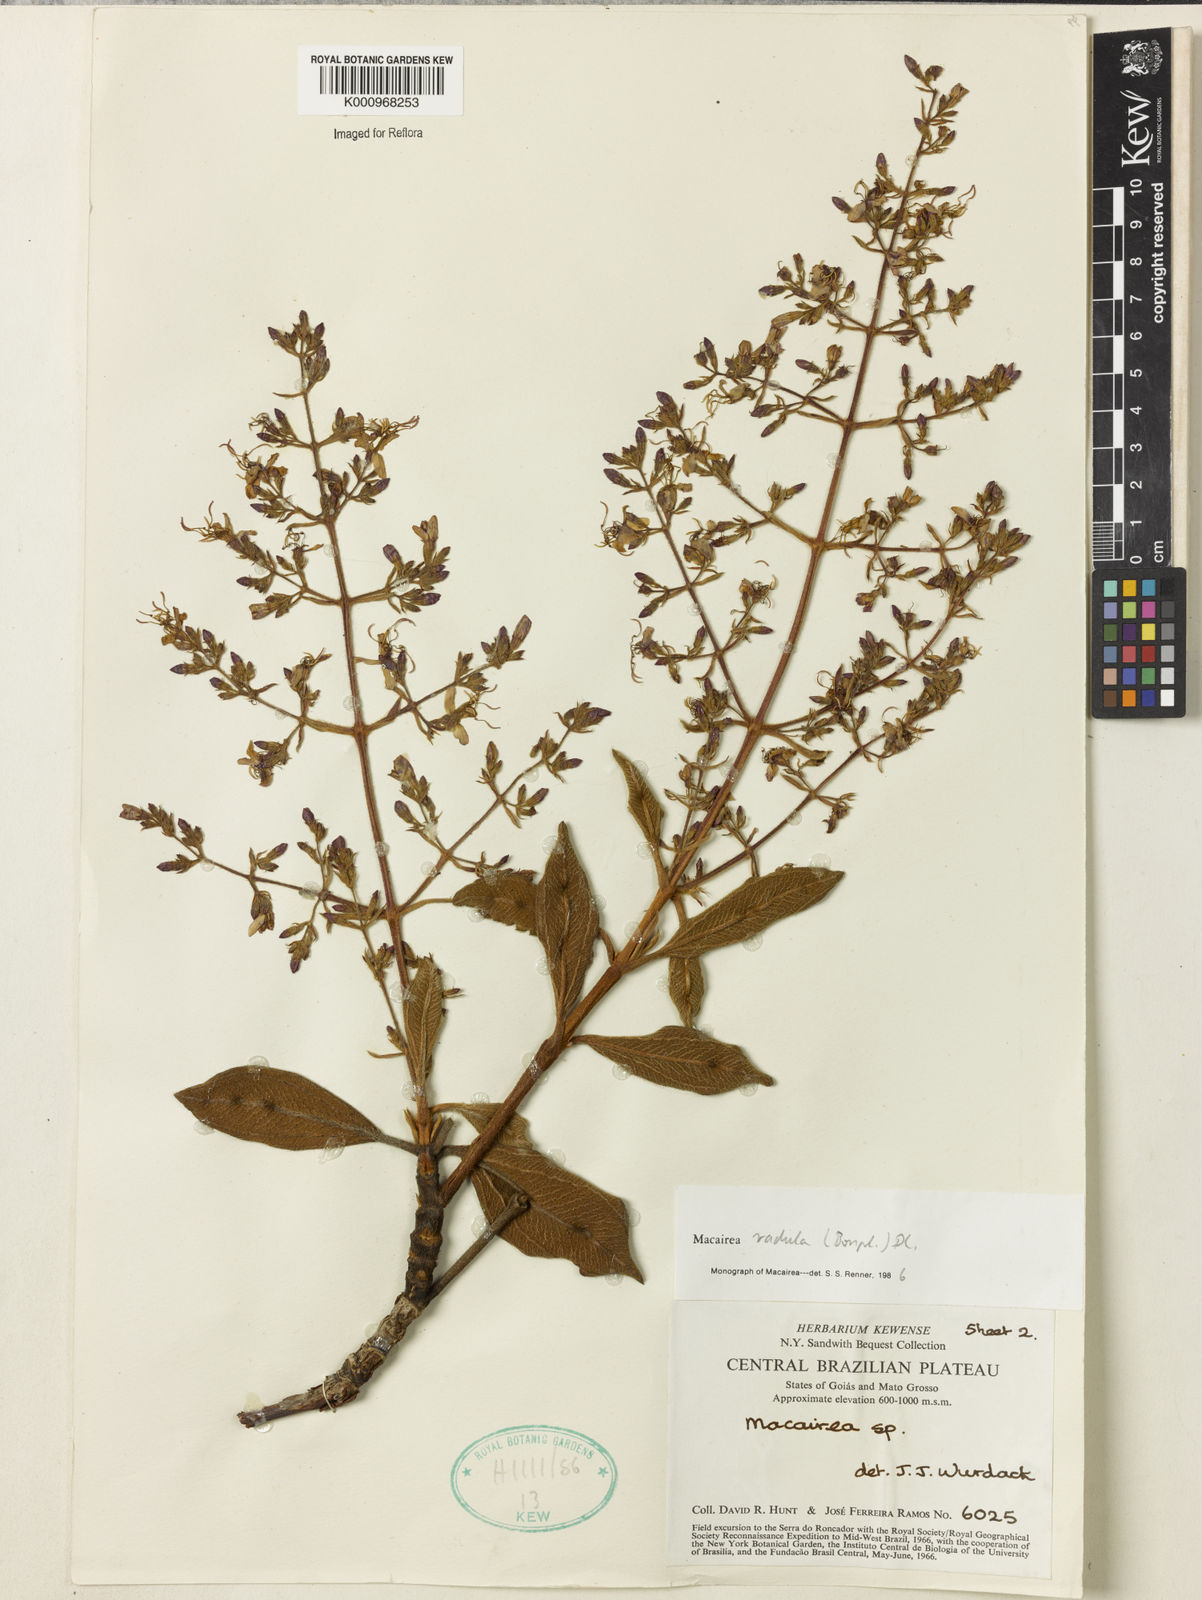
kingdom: Plantae
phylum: Tracheophyta
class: Magnoliopsida
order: Myrtales
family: Melastomataceae
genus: Macairea
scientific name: Macairea radula
